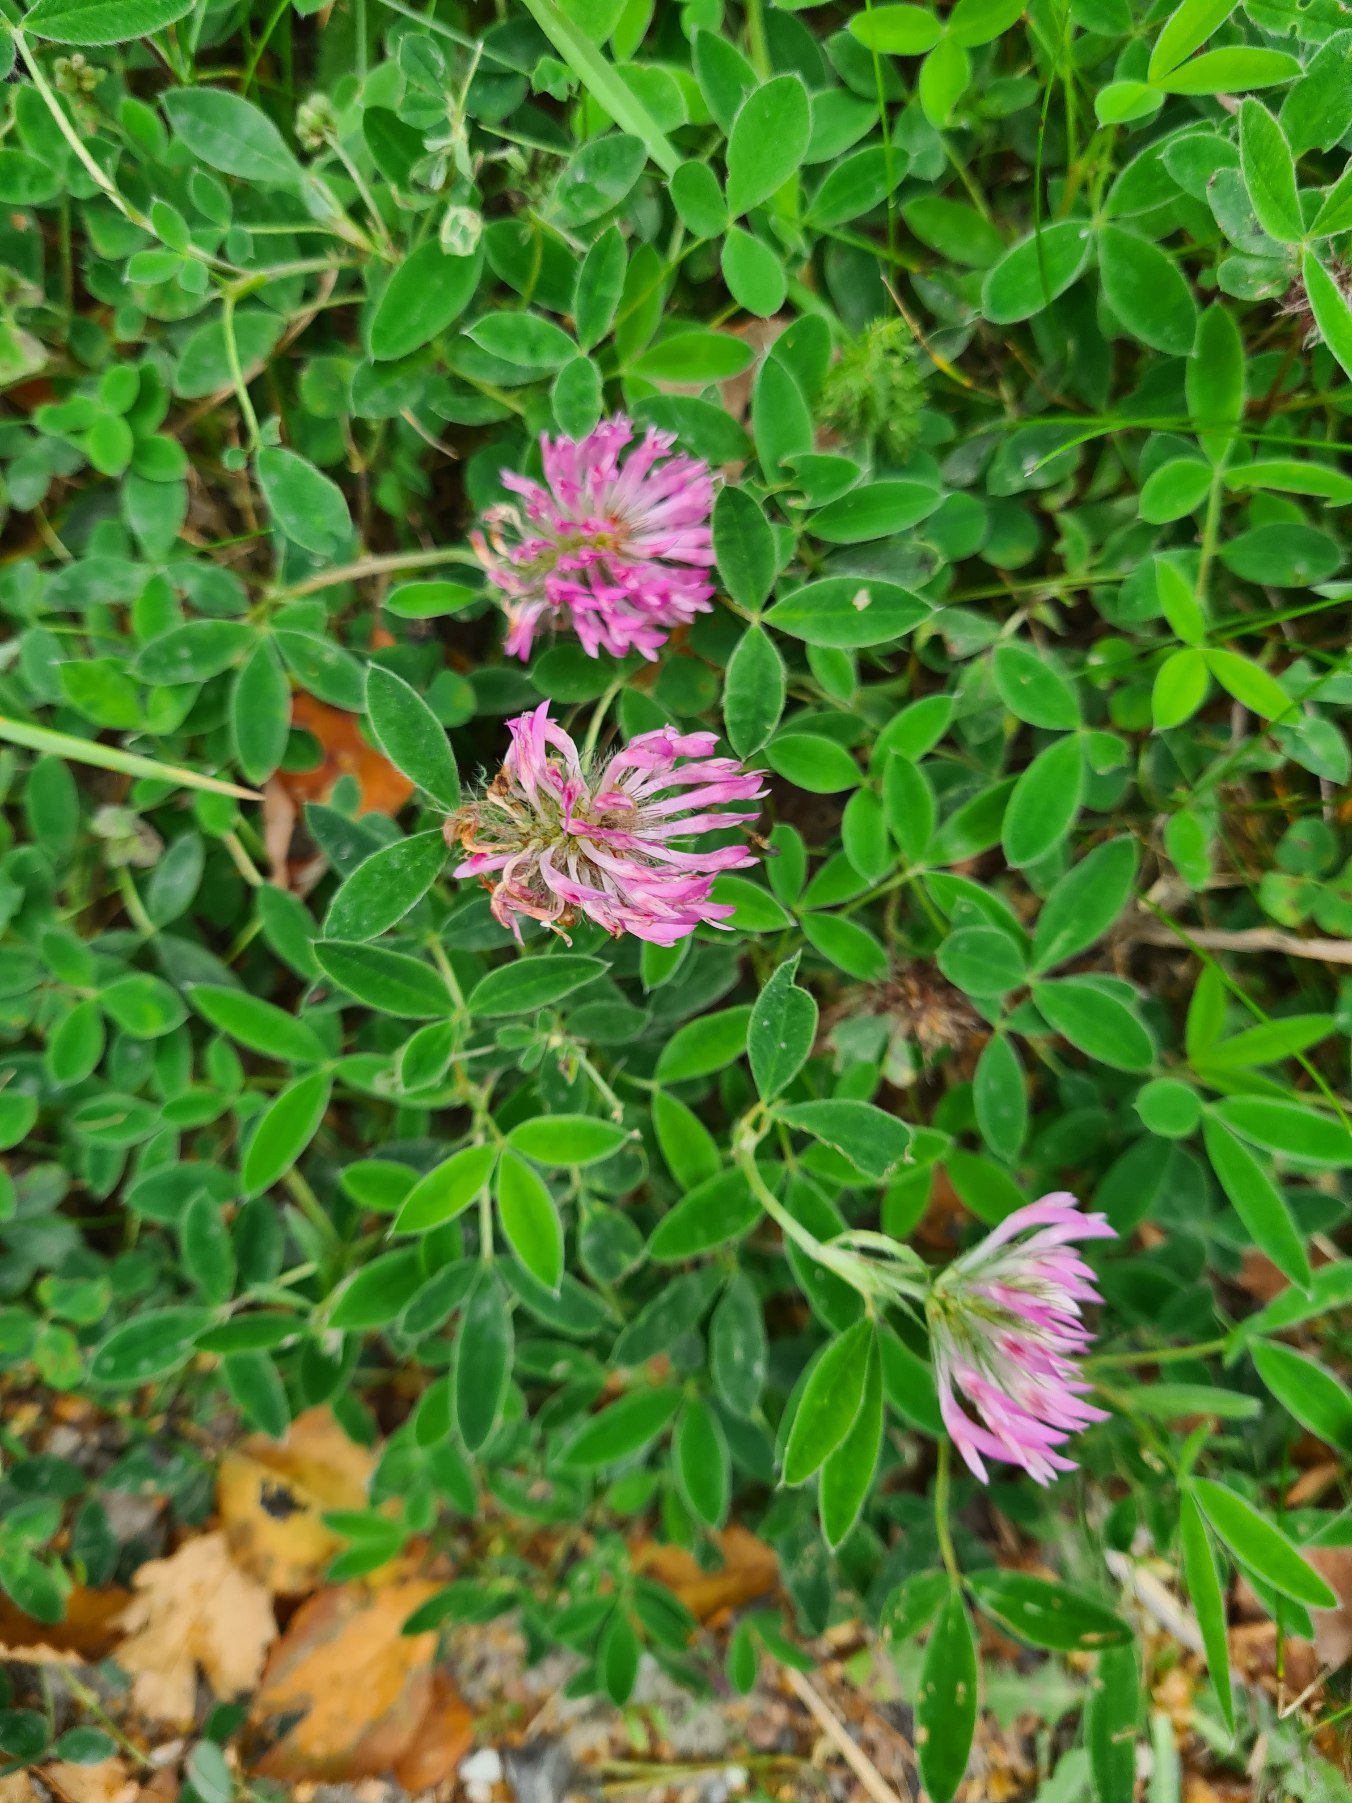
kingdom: Plantae
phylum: Tracheophyta
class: Magnoliopsida
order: Fabales
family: Fabaceae
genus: Trifolium
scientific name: Trifolium pratense
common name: Rød-kløver
